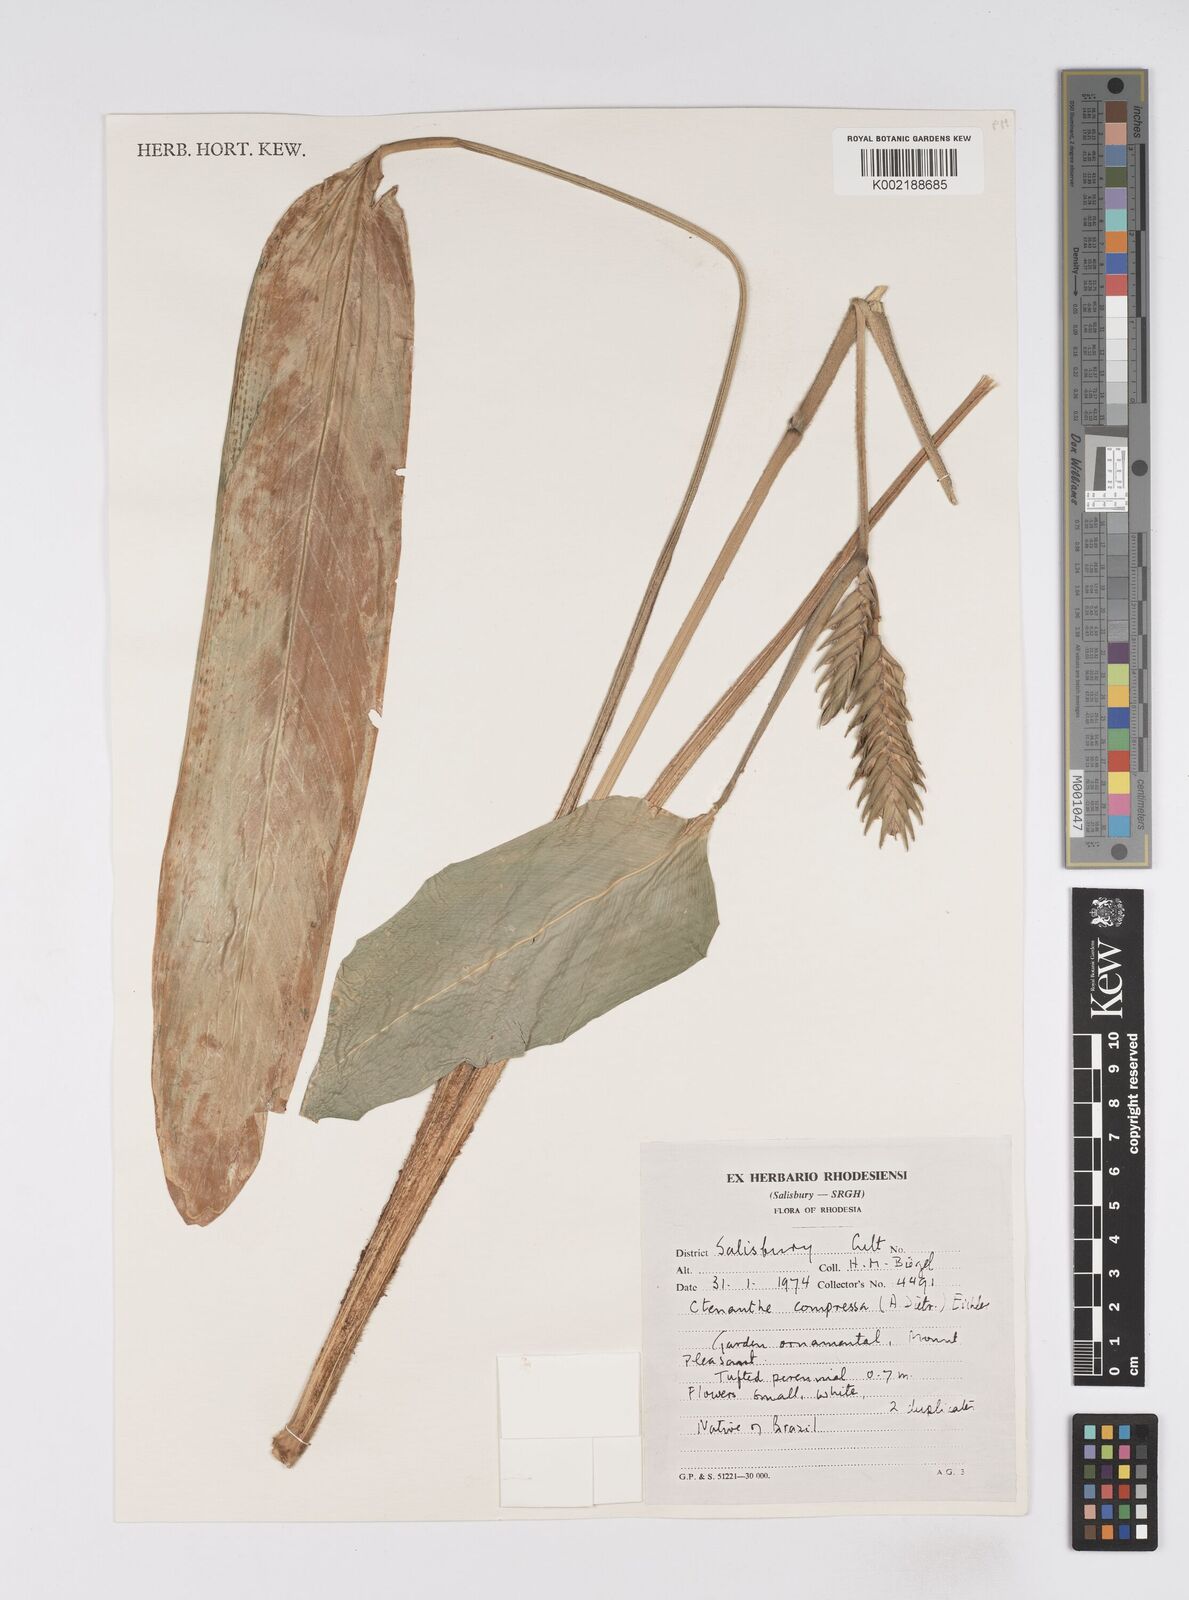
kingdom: Plantae
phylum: Tracheophyta
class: Liliopsida
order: Zingiberales
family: Marantaceae
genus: Ctenanthe
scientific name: Ctenanthe compressa
